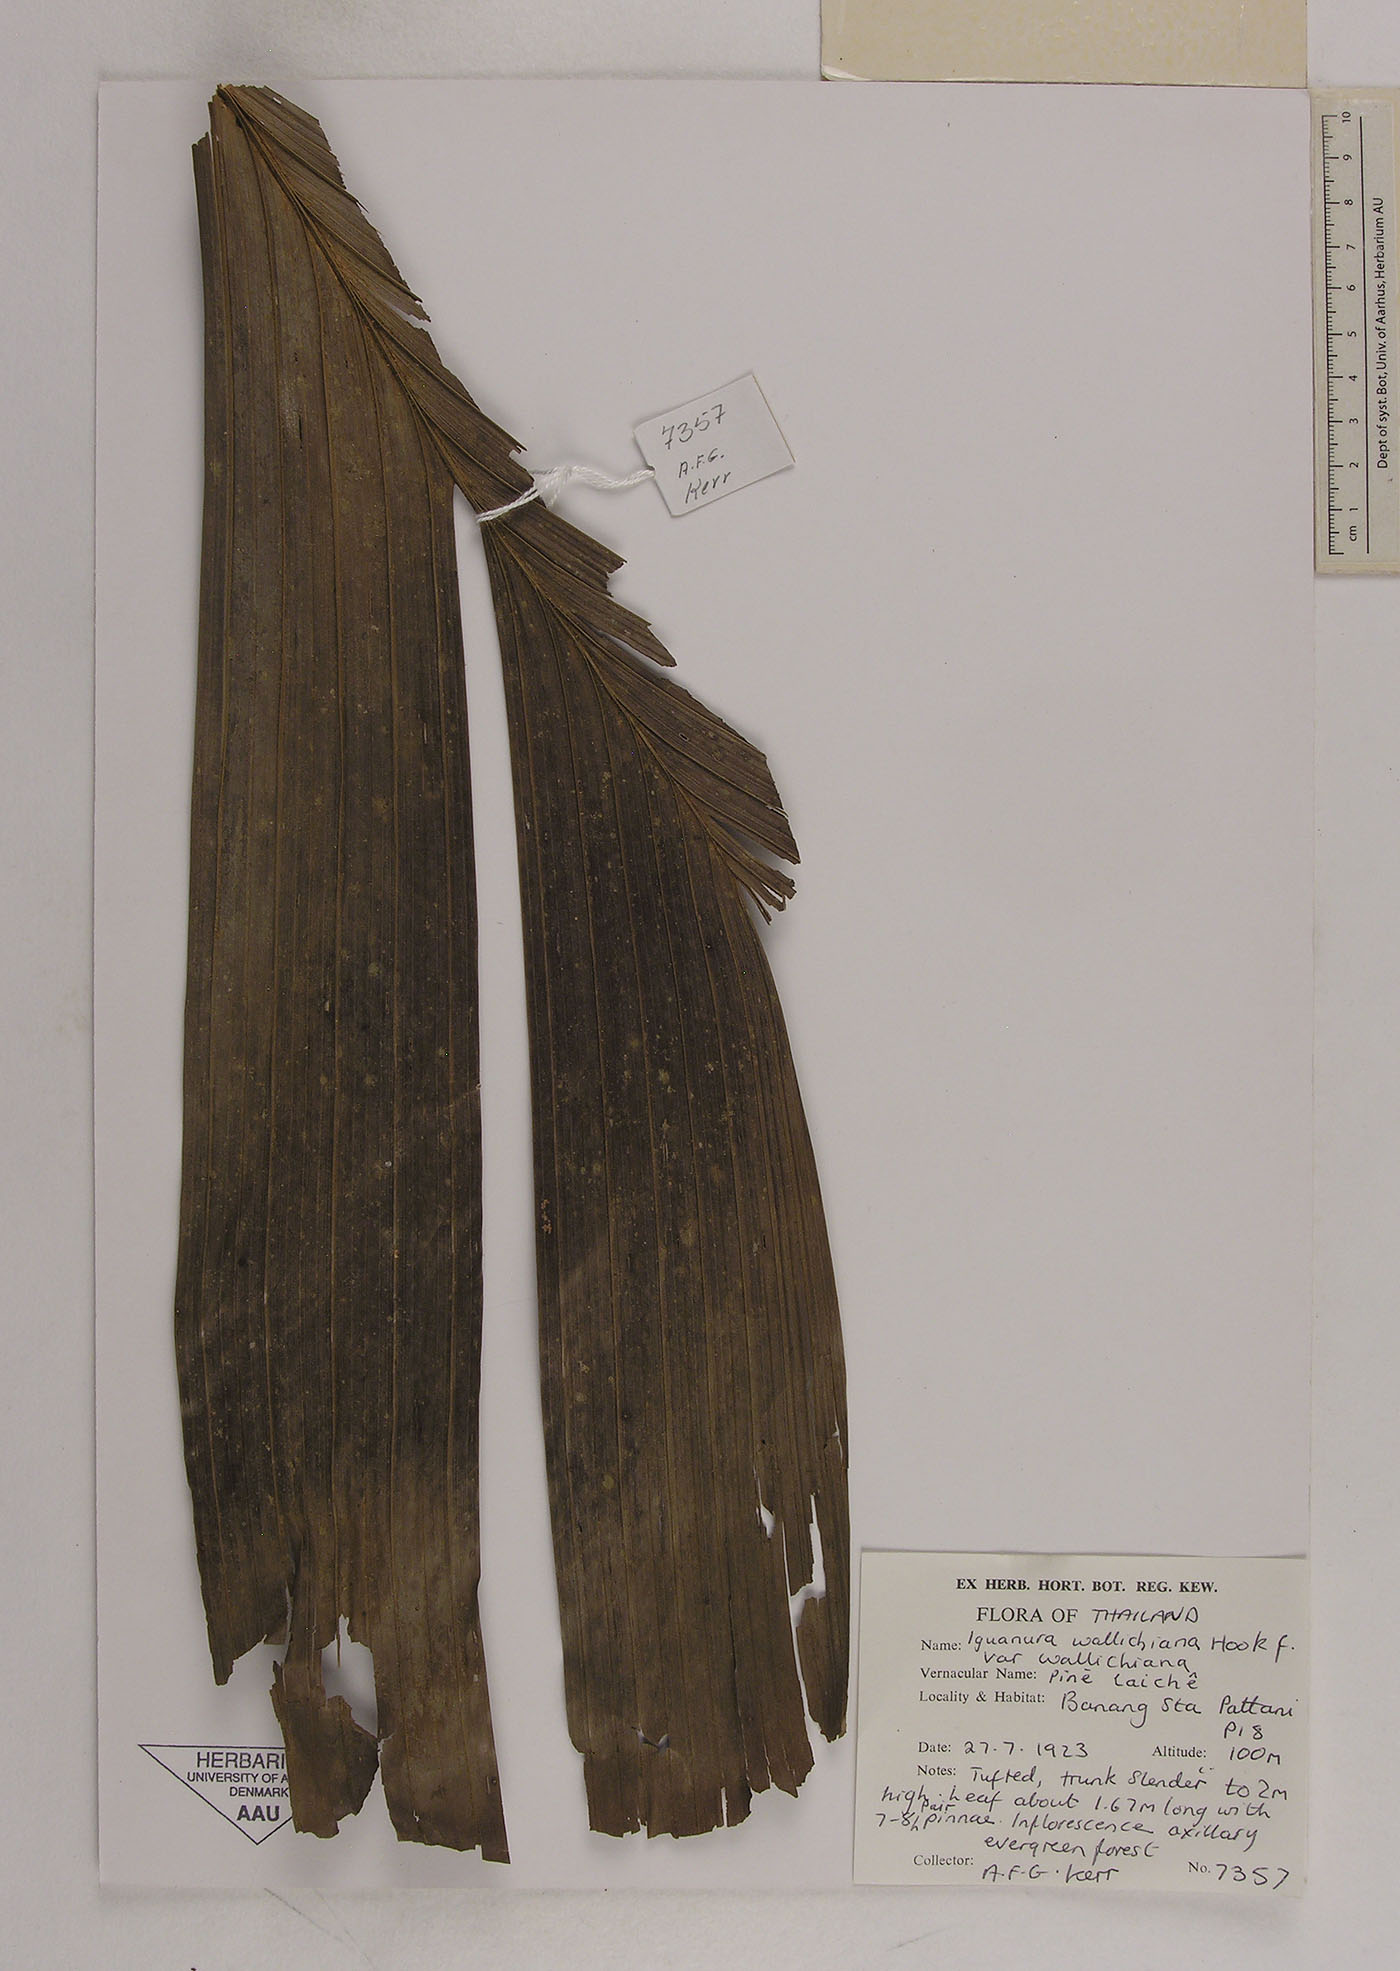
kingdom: Plantae
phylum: Tracheophyta
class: Liliopsida
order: Arecales
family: Arecaceae
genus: Iguanura
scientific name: Iguanura wallichiana
